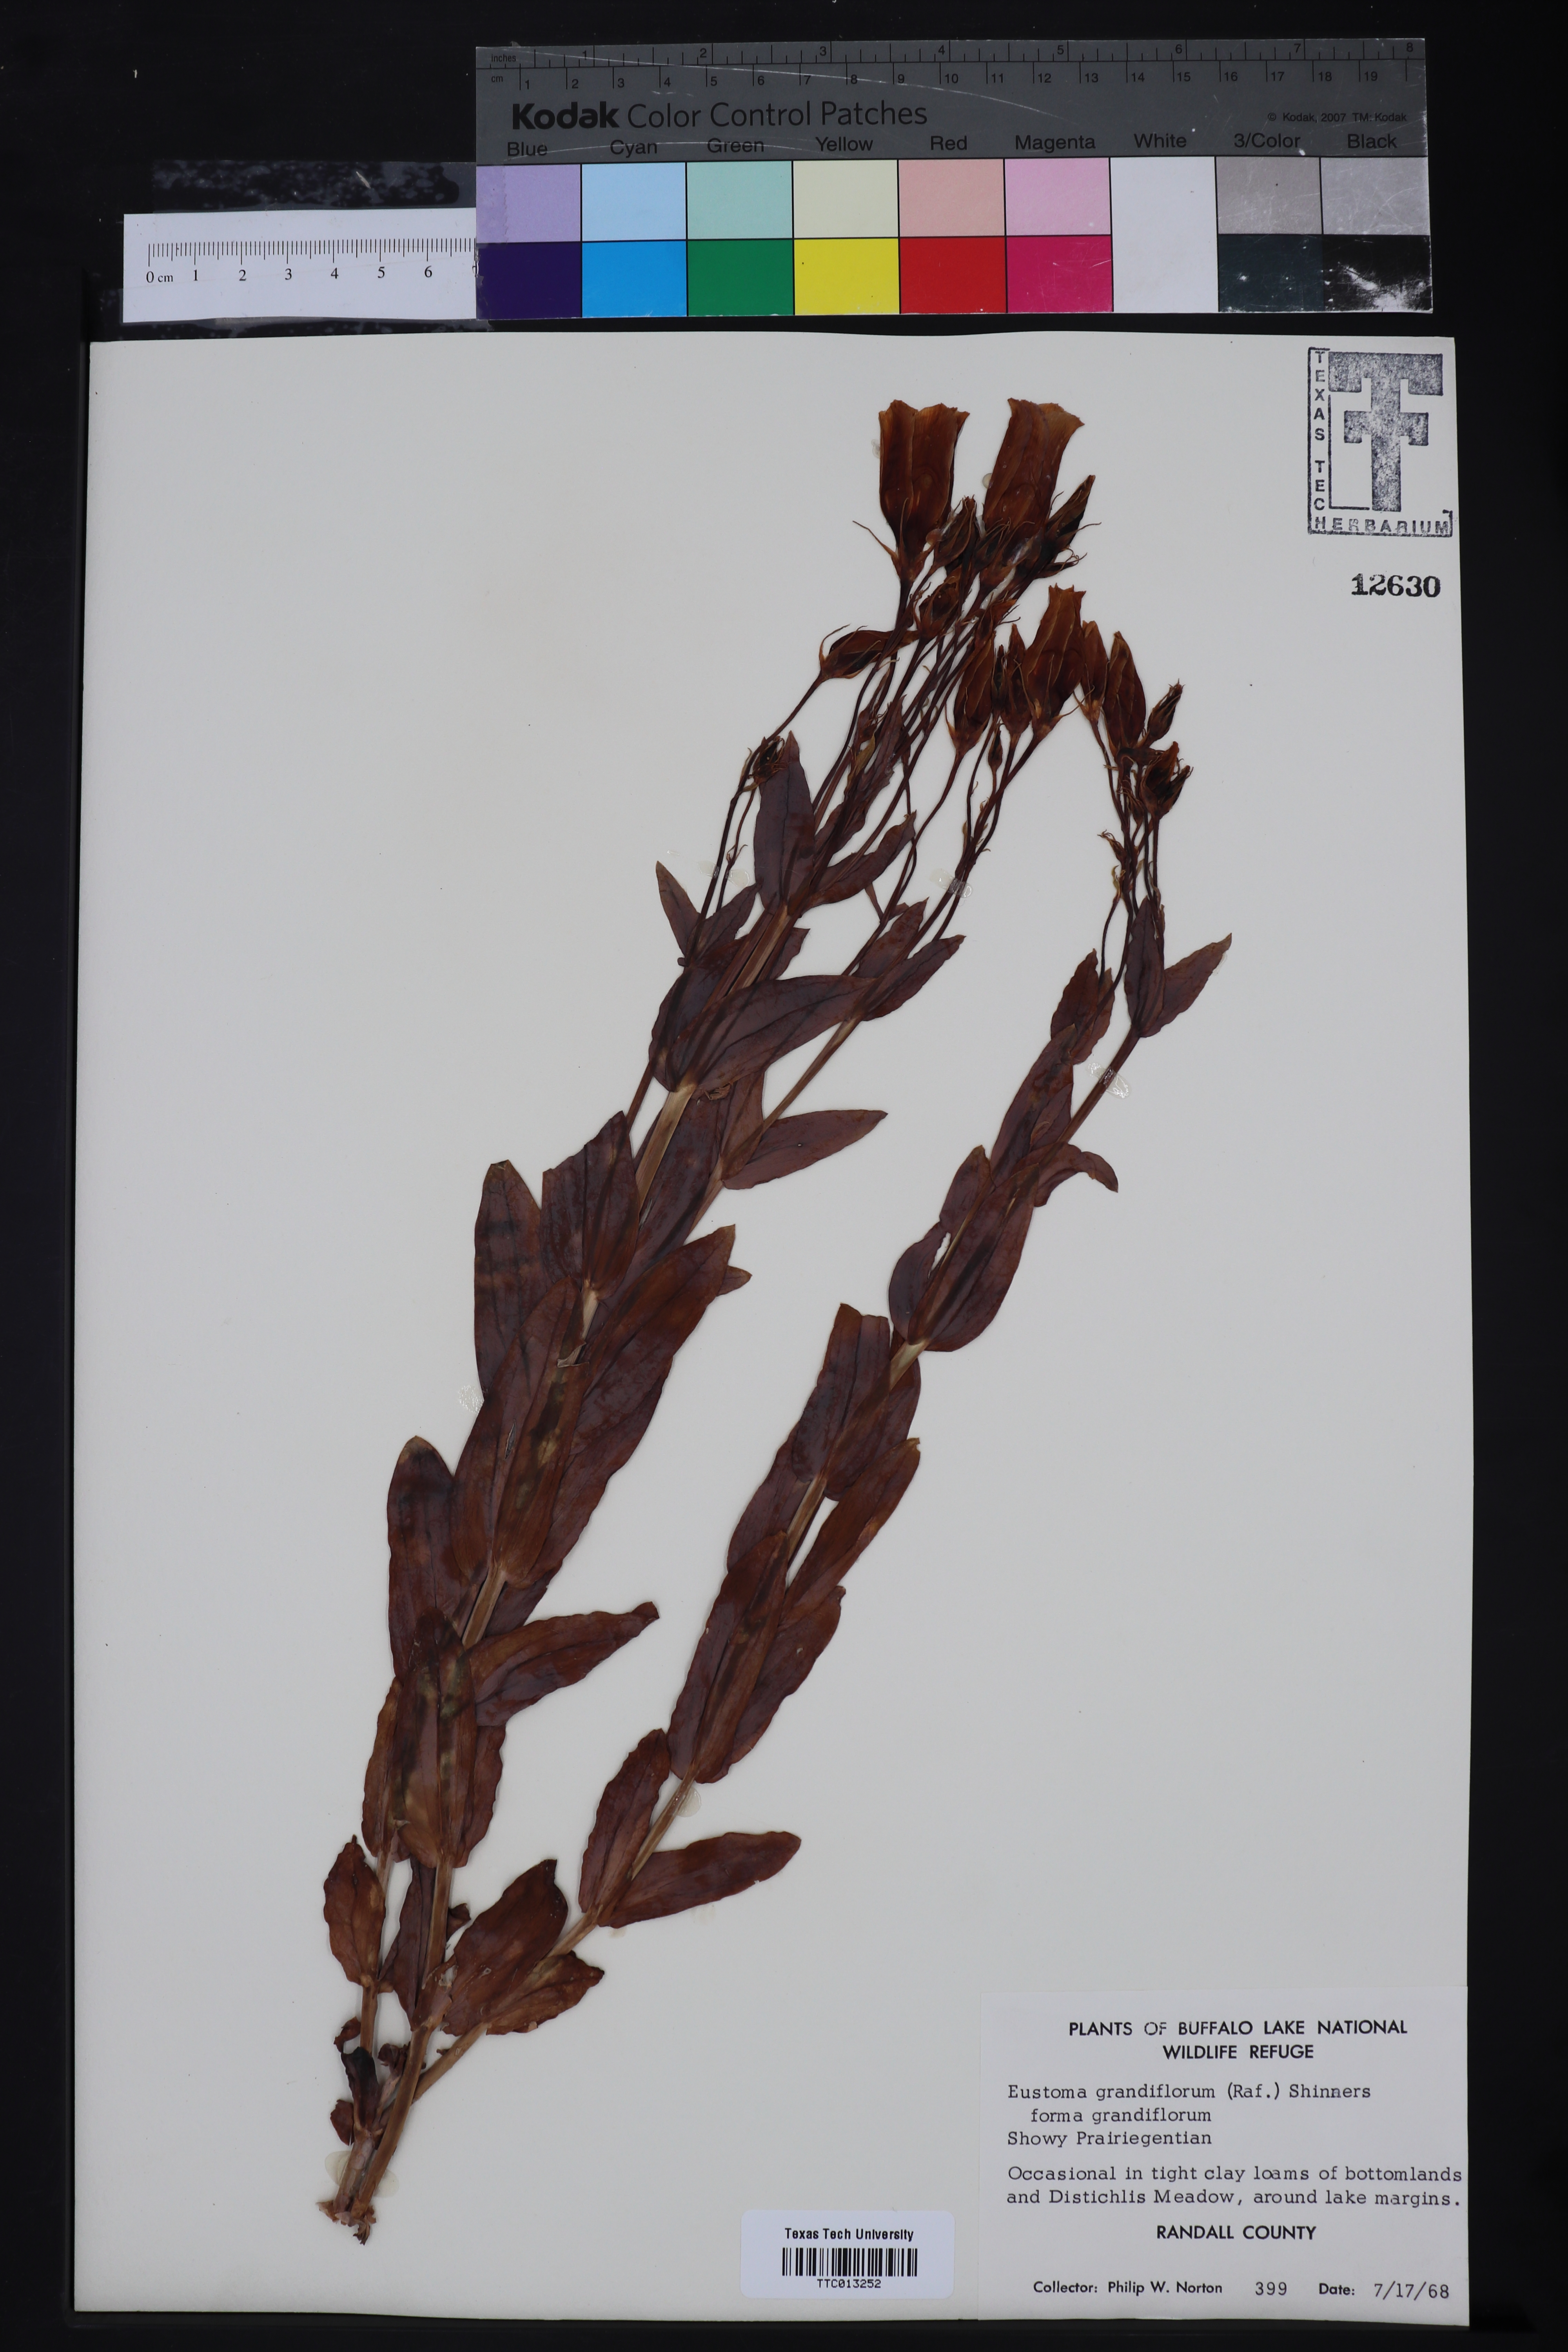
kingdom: Plantae
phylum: Tracheophyta
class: Magnoliopsida
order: Gentianales
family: Gentianaceae
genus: Eustoma
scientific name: Eustoma russellianum
